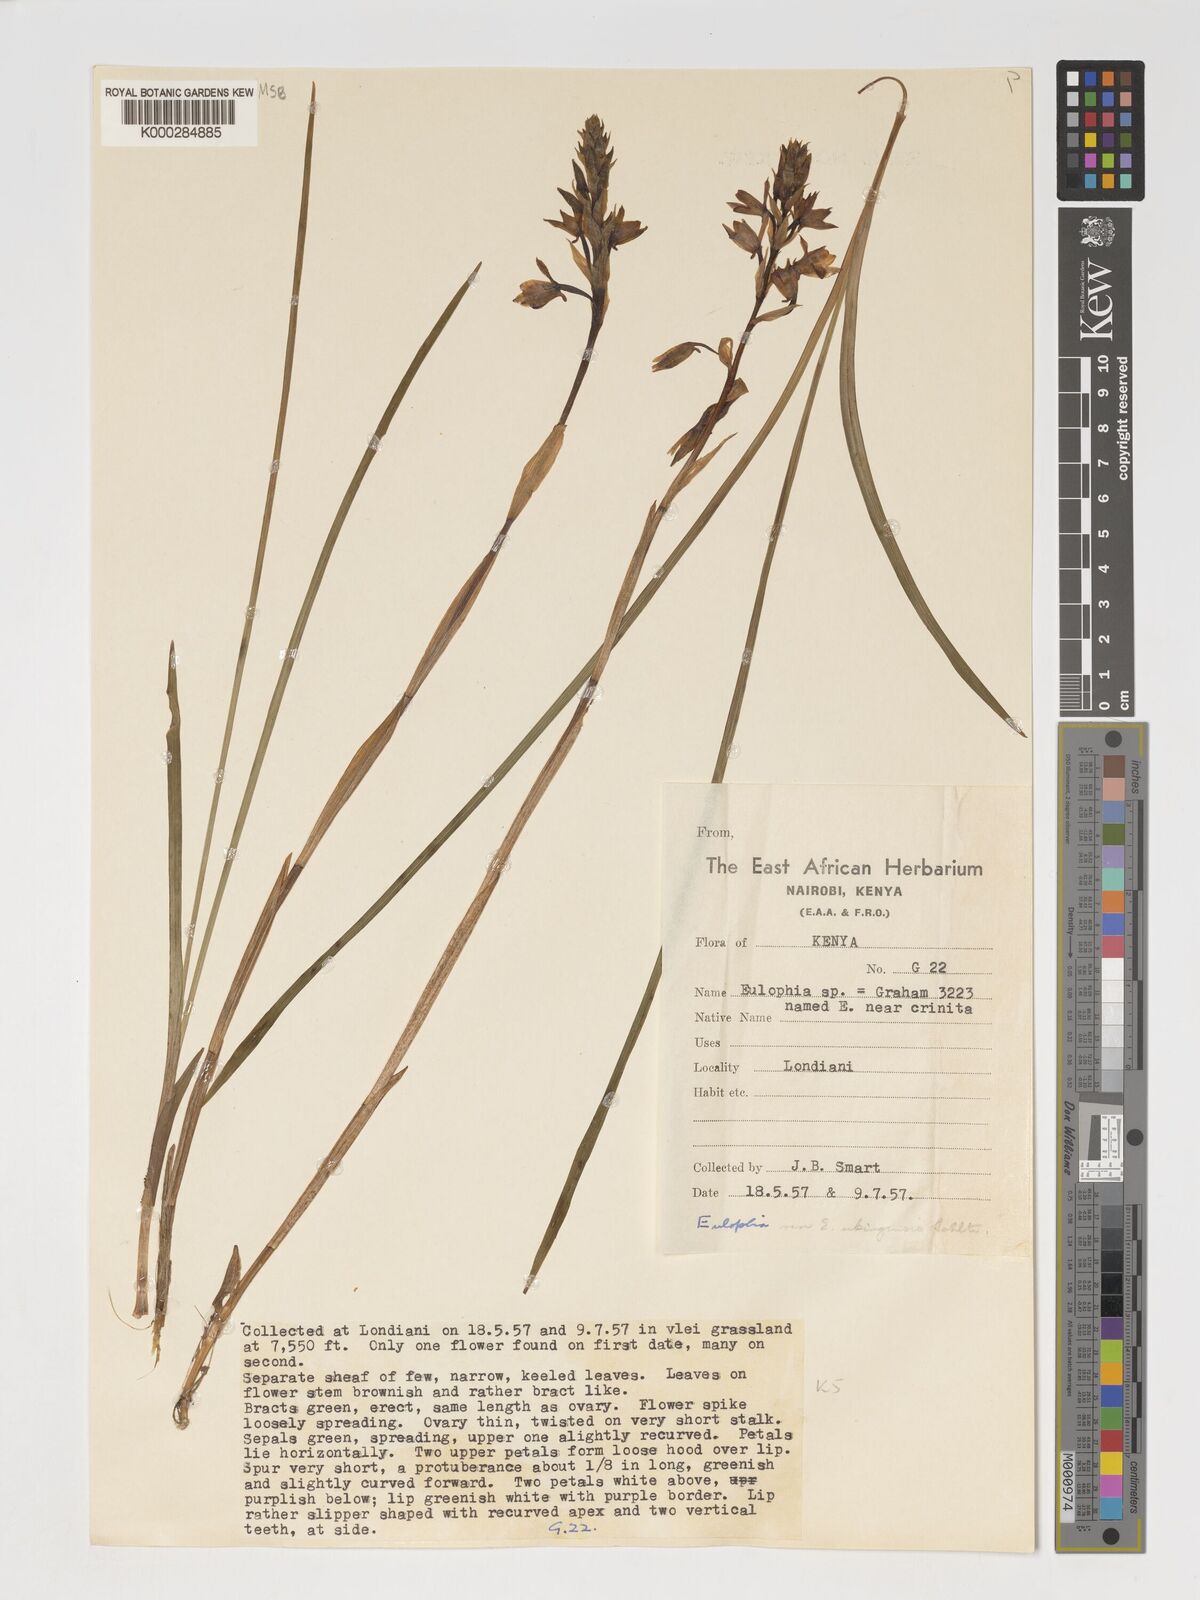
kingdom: Plantae
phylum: Tracheophyta
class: Liliopsida
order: Asparagales
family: Orchidaceae
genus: Eulophia
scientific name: Eulophia hians
